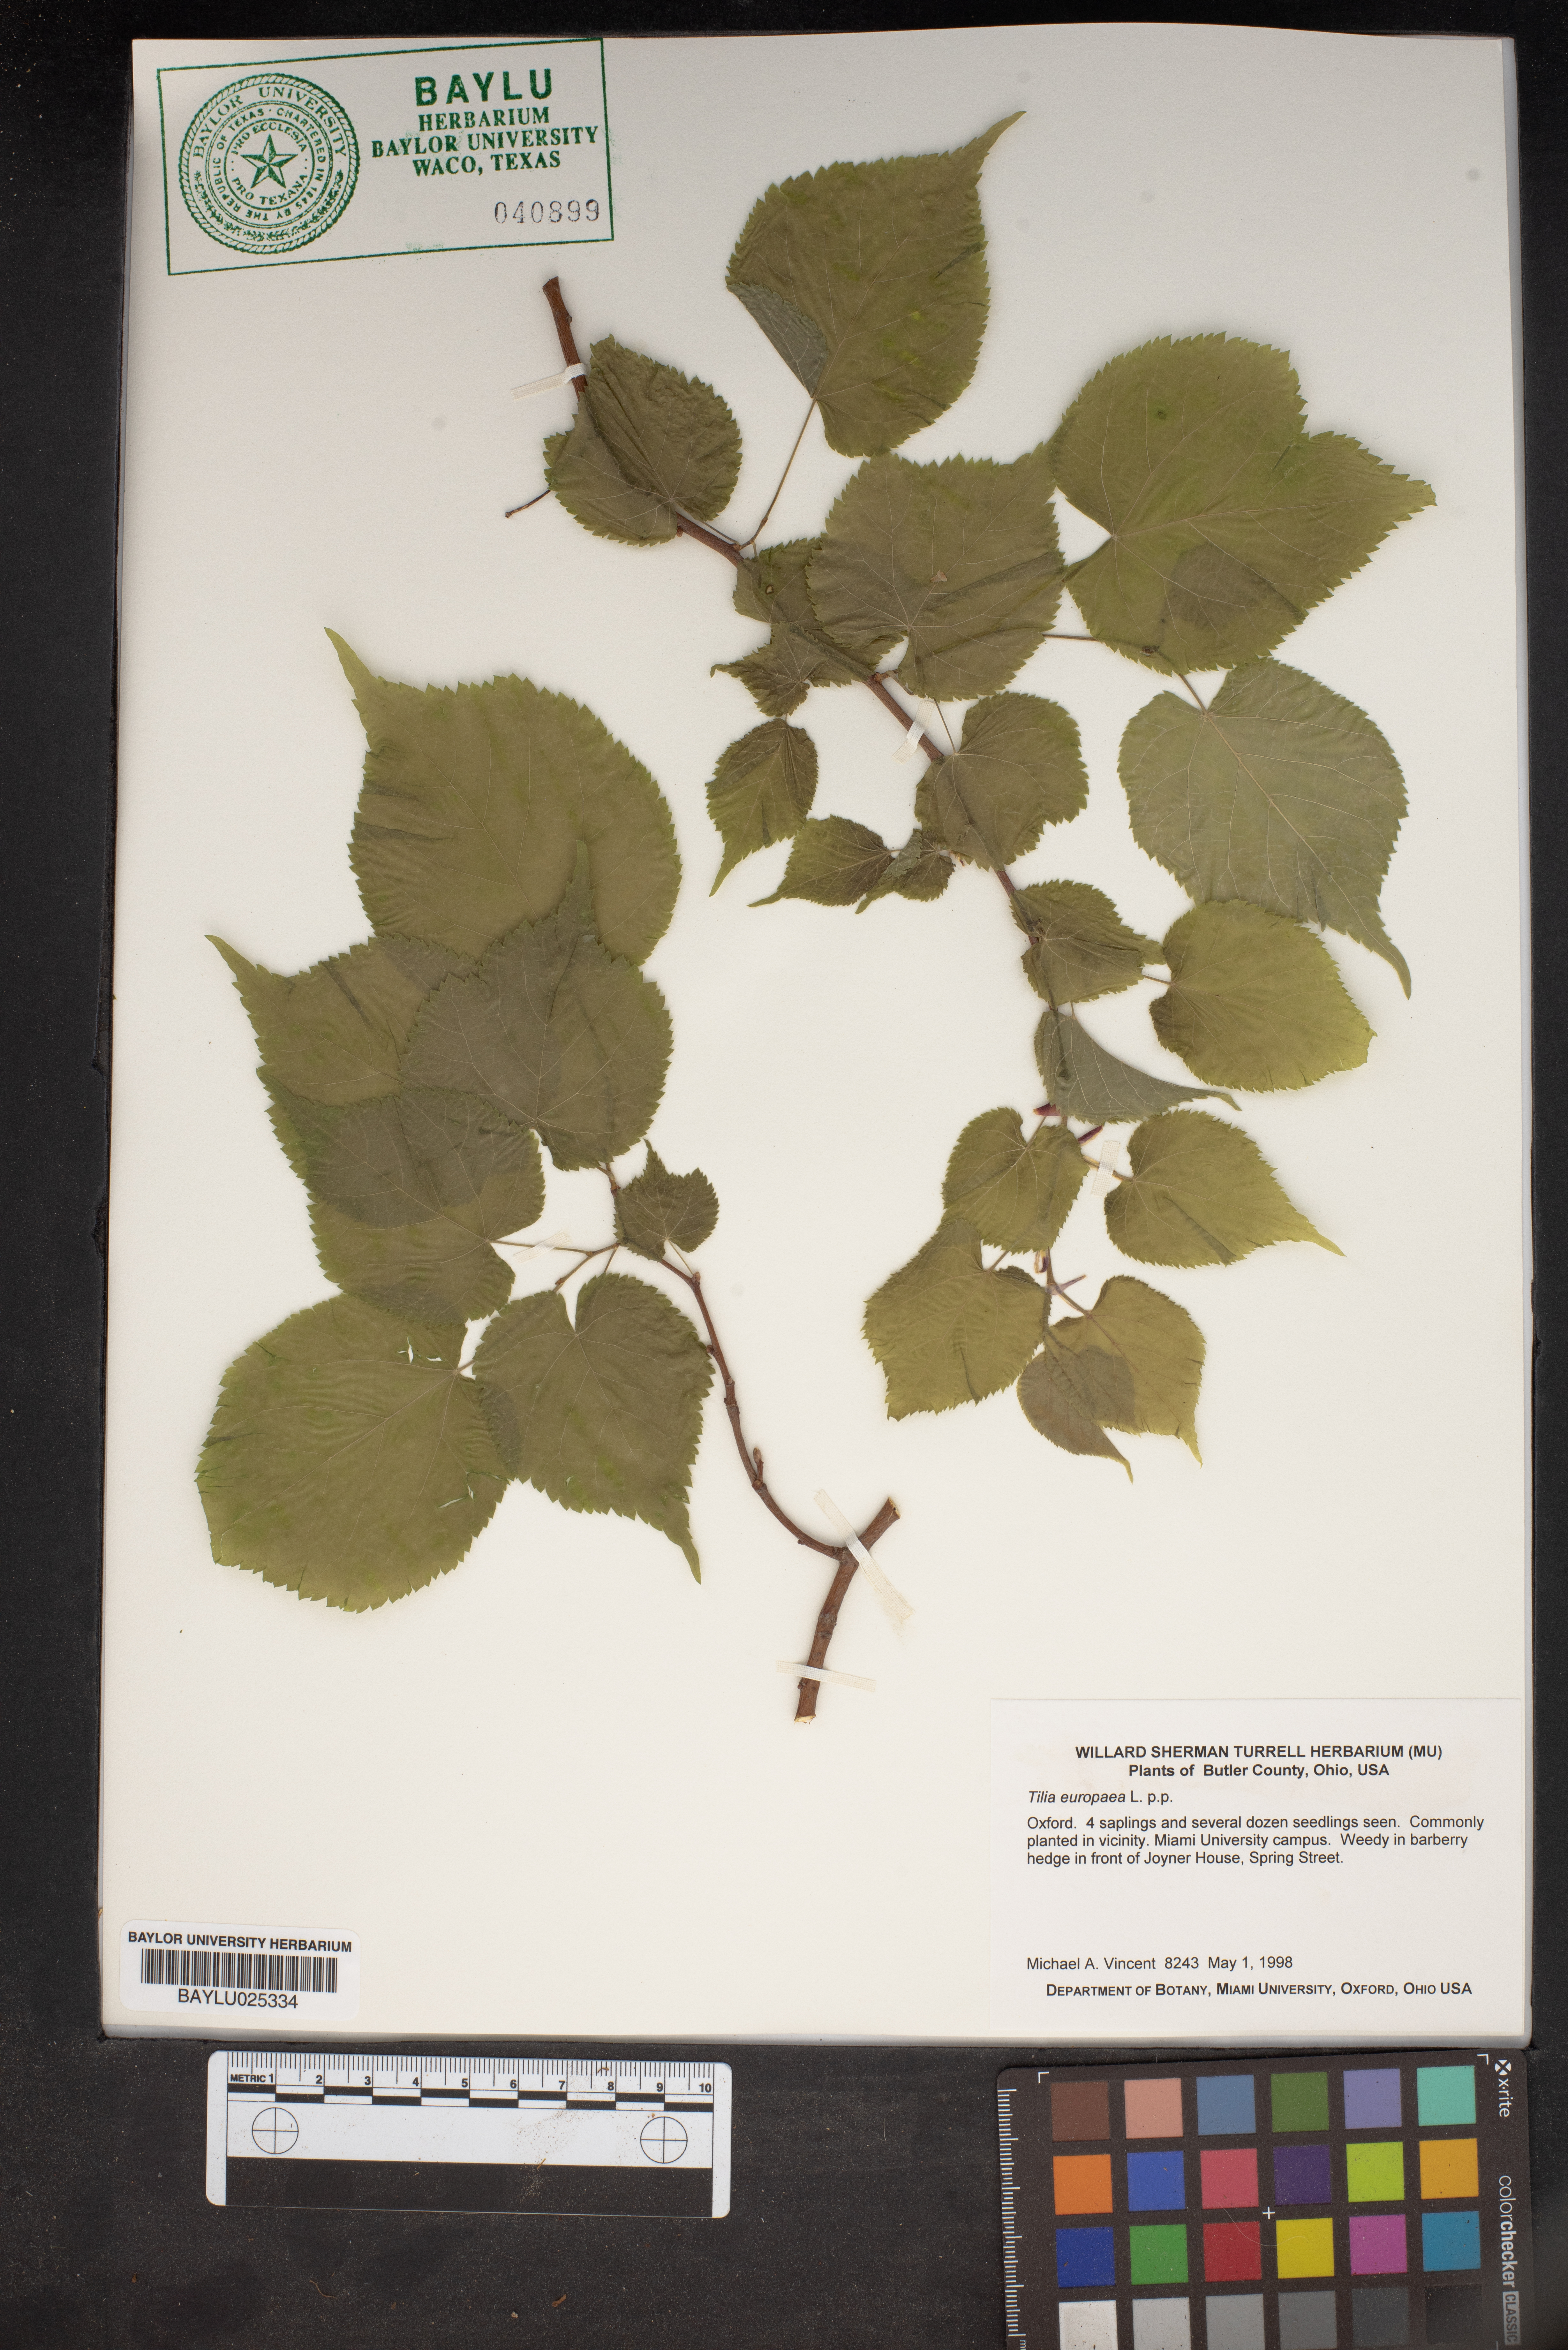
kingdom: Plantae
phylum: Tracheophyta
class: Magnoliopsida
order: Malvales
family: Malvaceae
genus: Tilia
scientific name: Tilia europaea
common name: European linden
